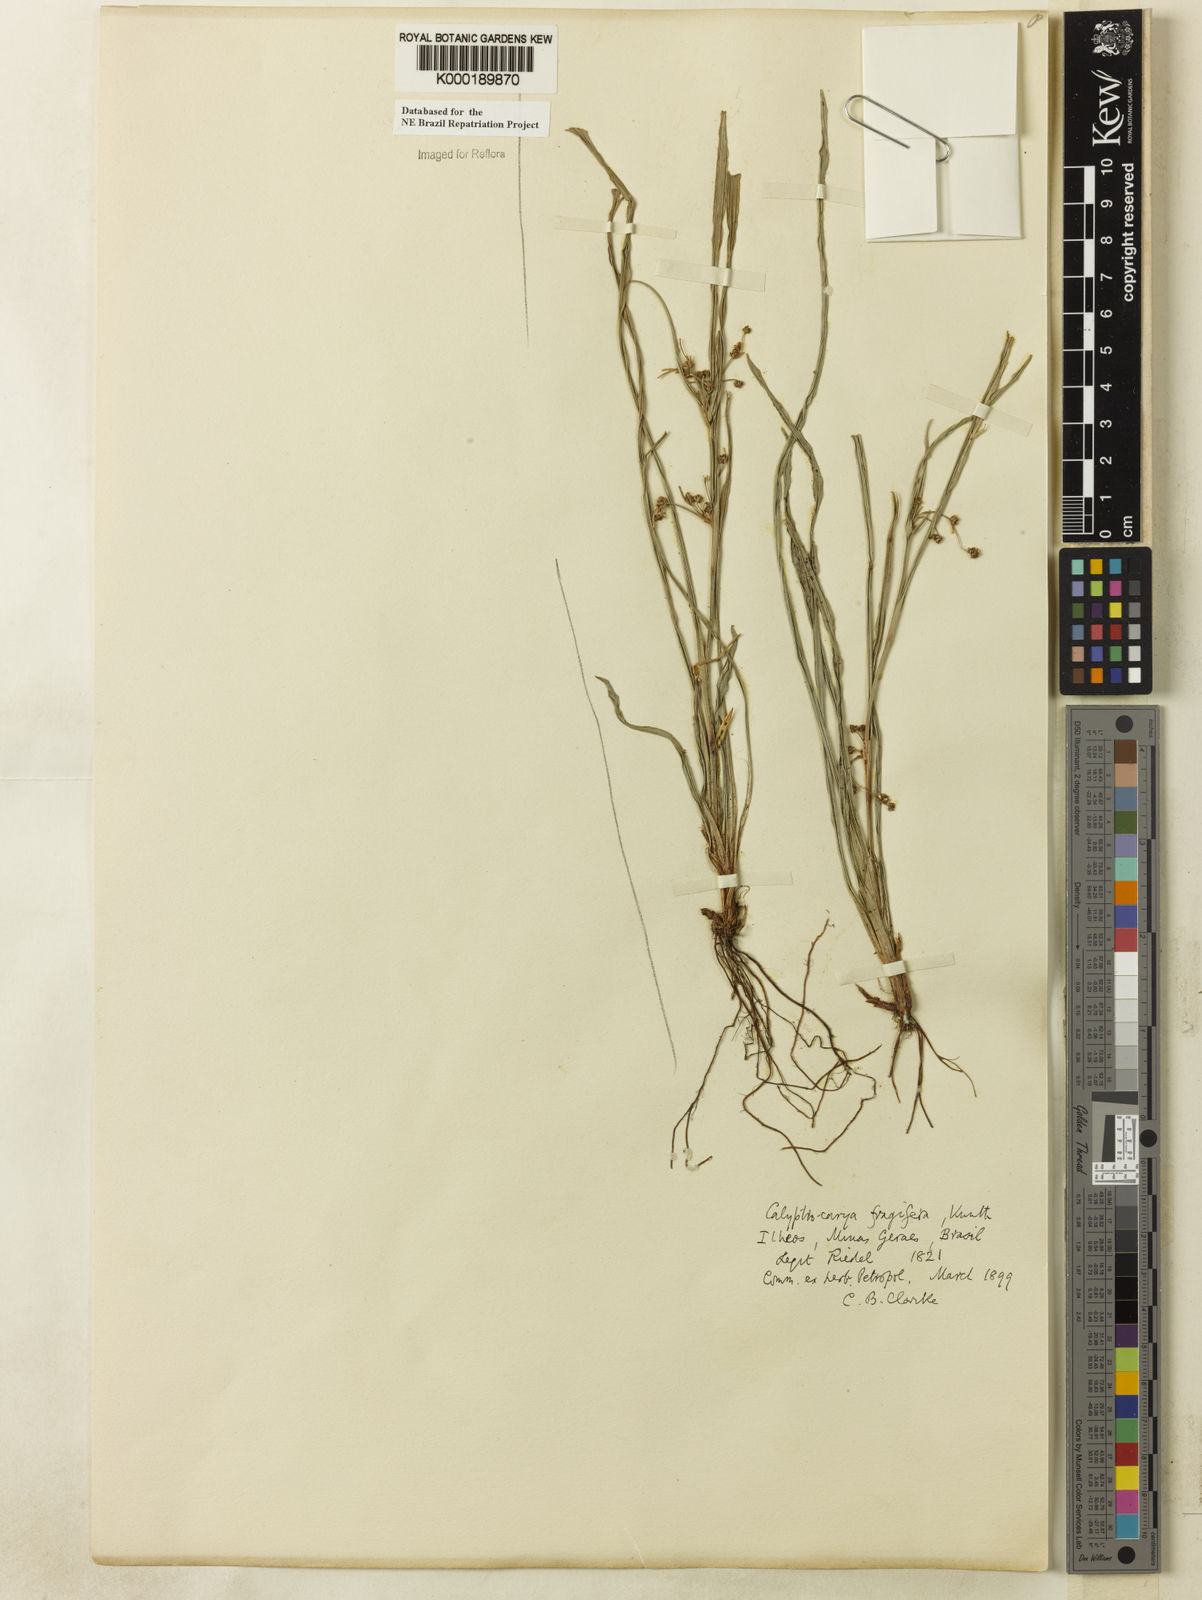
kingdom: Plantae
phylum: Tracheophyta
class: Liliopsida
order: Poales
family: Cyperaceae
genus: Calyptrocarya
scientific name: Calyptrocarya
